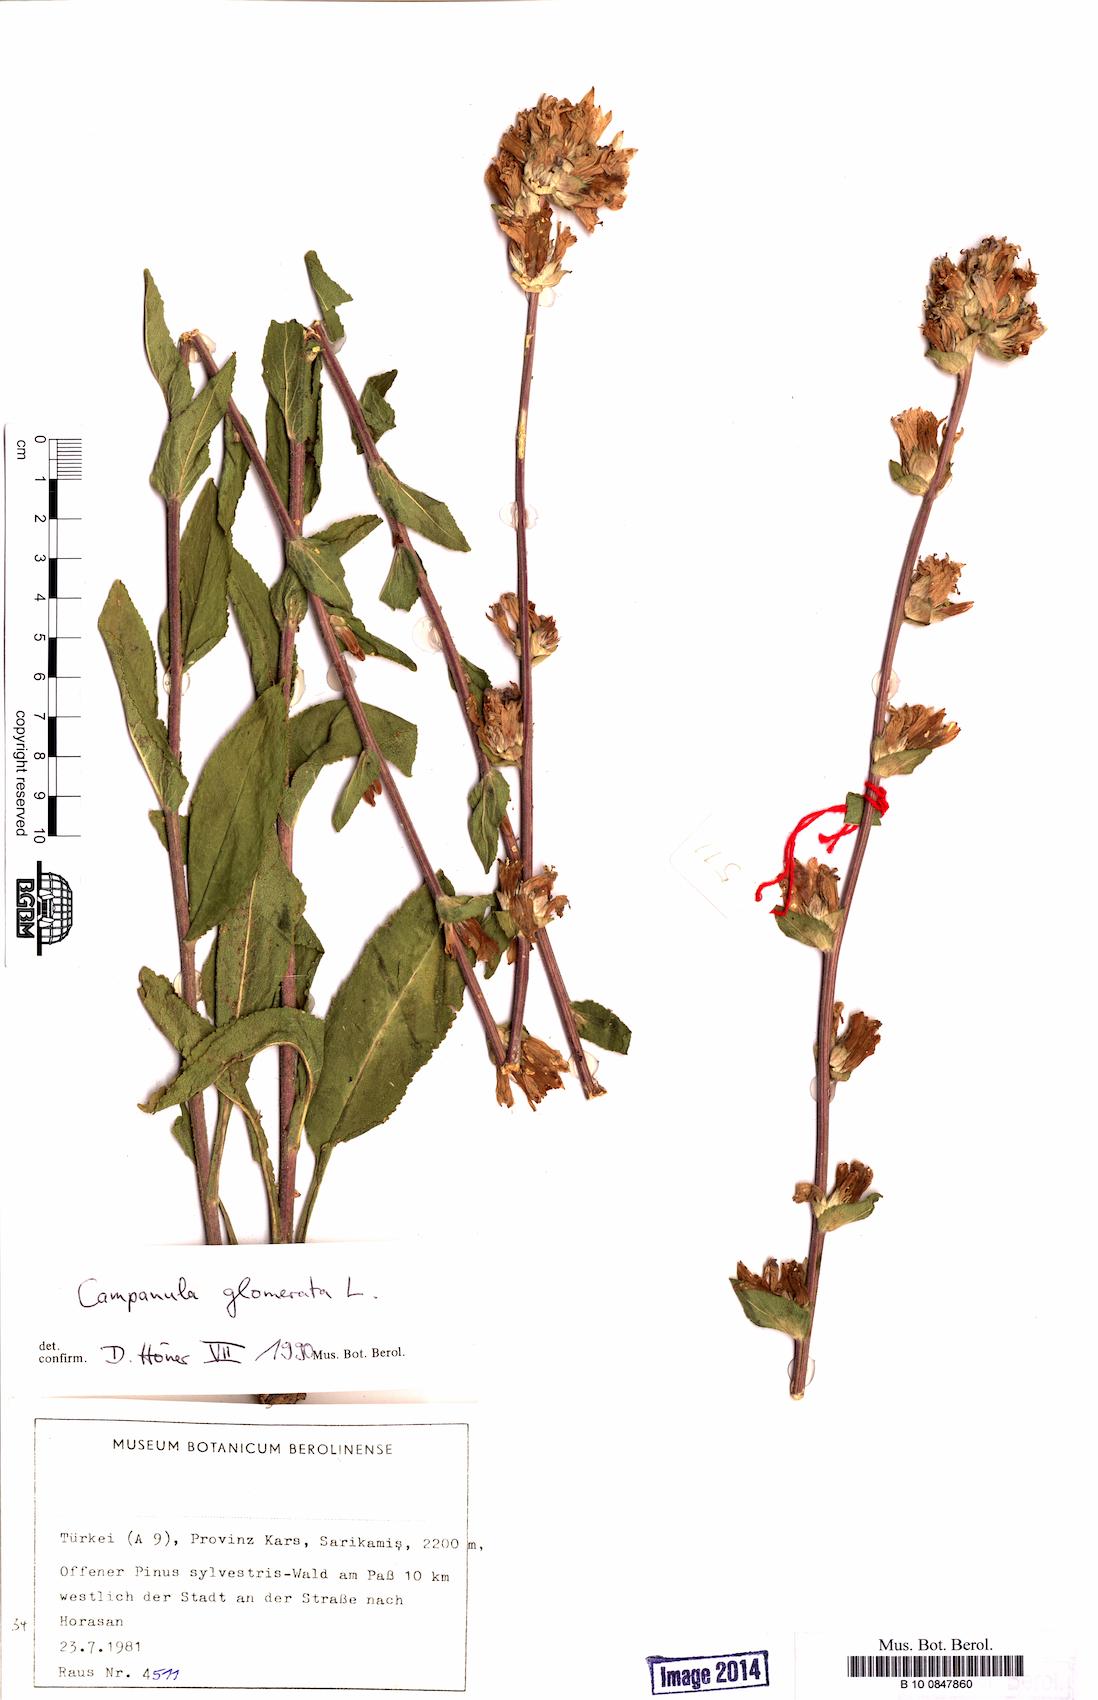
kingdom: Plantae
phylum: Tracheophyta
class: Magnoliopsida
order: Asterales
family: Campanulaceae
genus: Campanula
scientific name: Campanula glomerata
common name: Clustered bellflower
